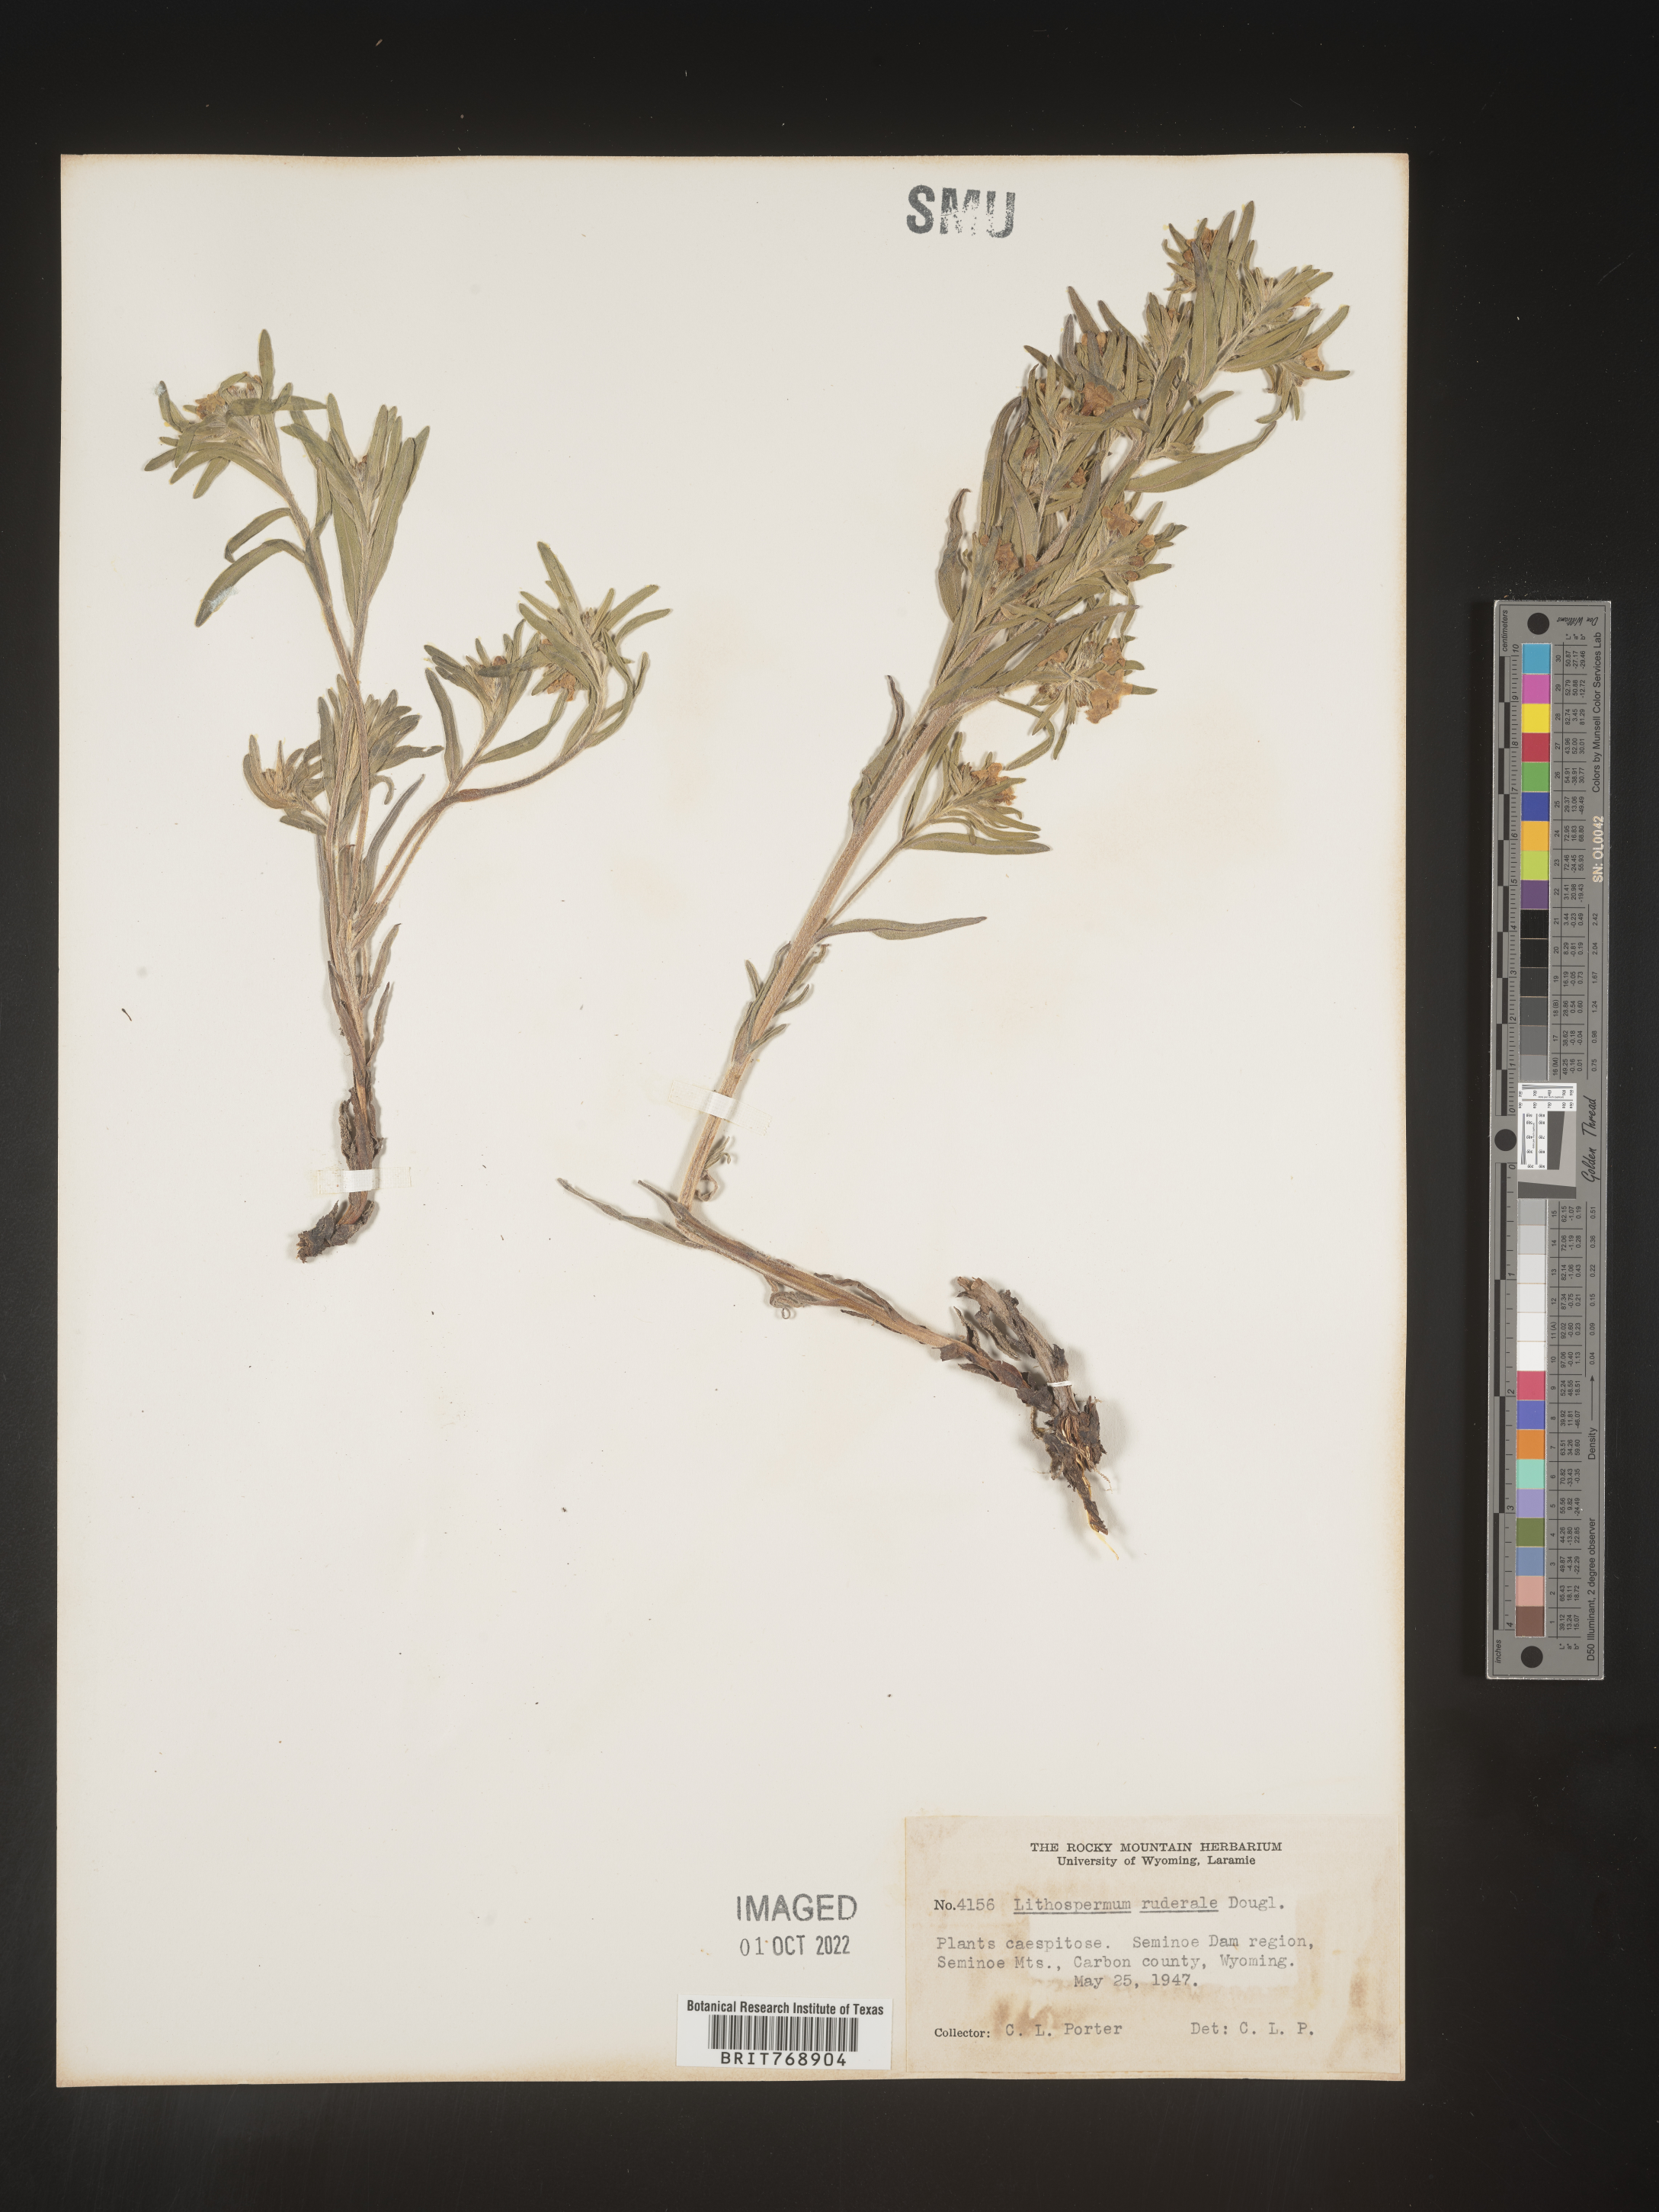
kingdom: Plantae
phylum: Tracheophyta
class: Magnoliopsida
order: Boraginales
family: Boraginaceae
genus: Lithospermum
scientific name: Lithospermum
